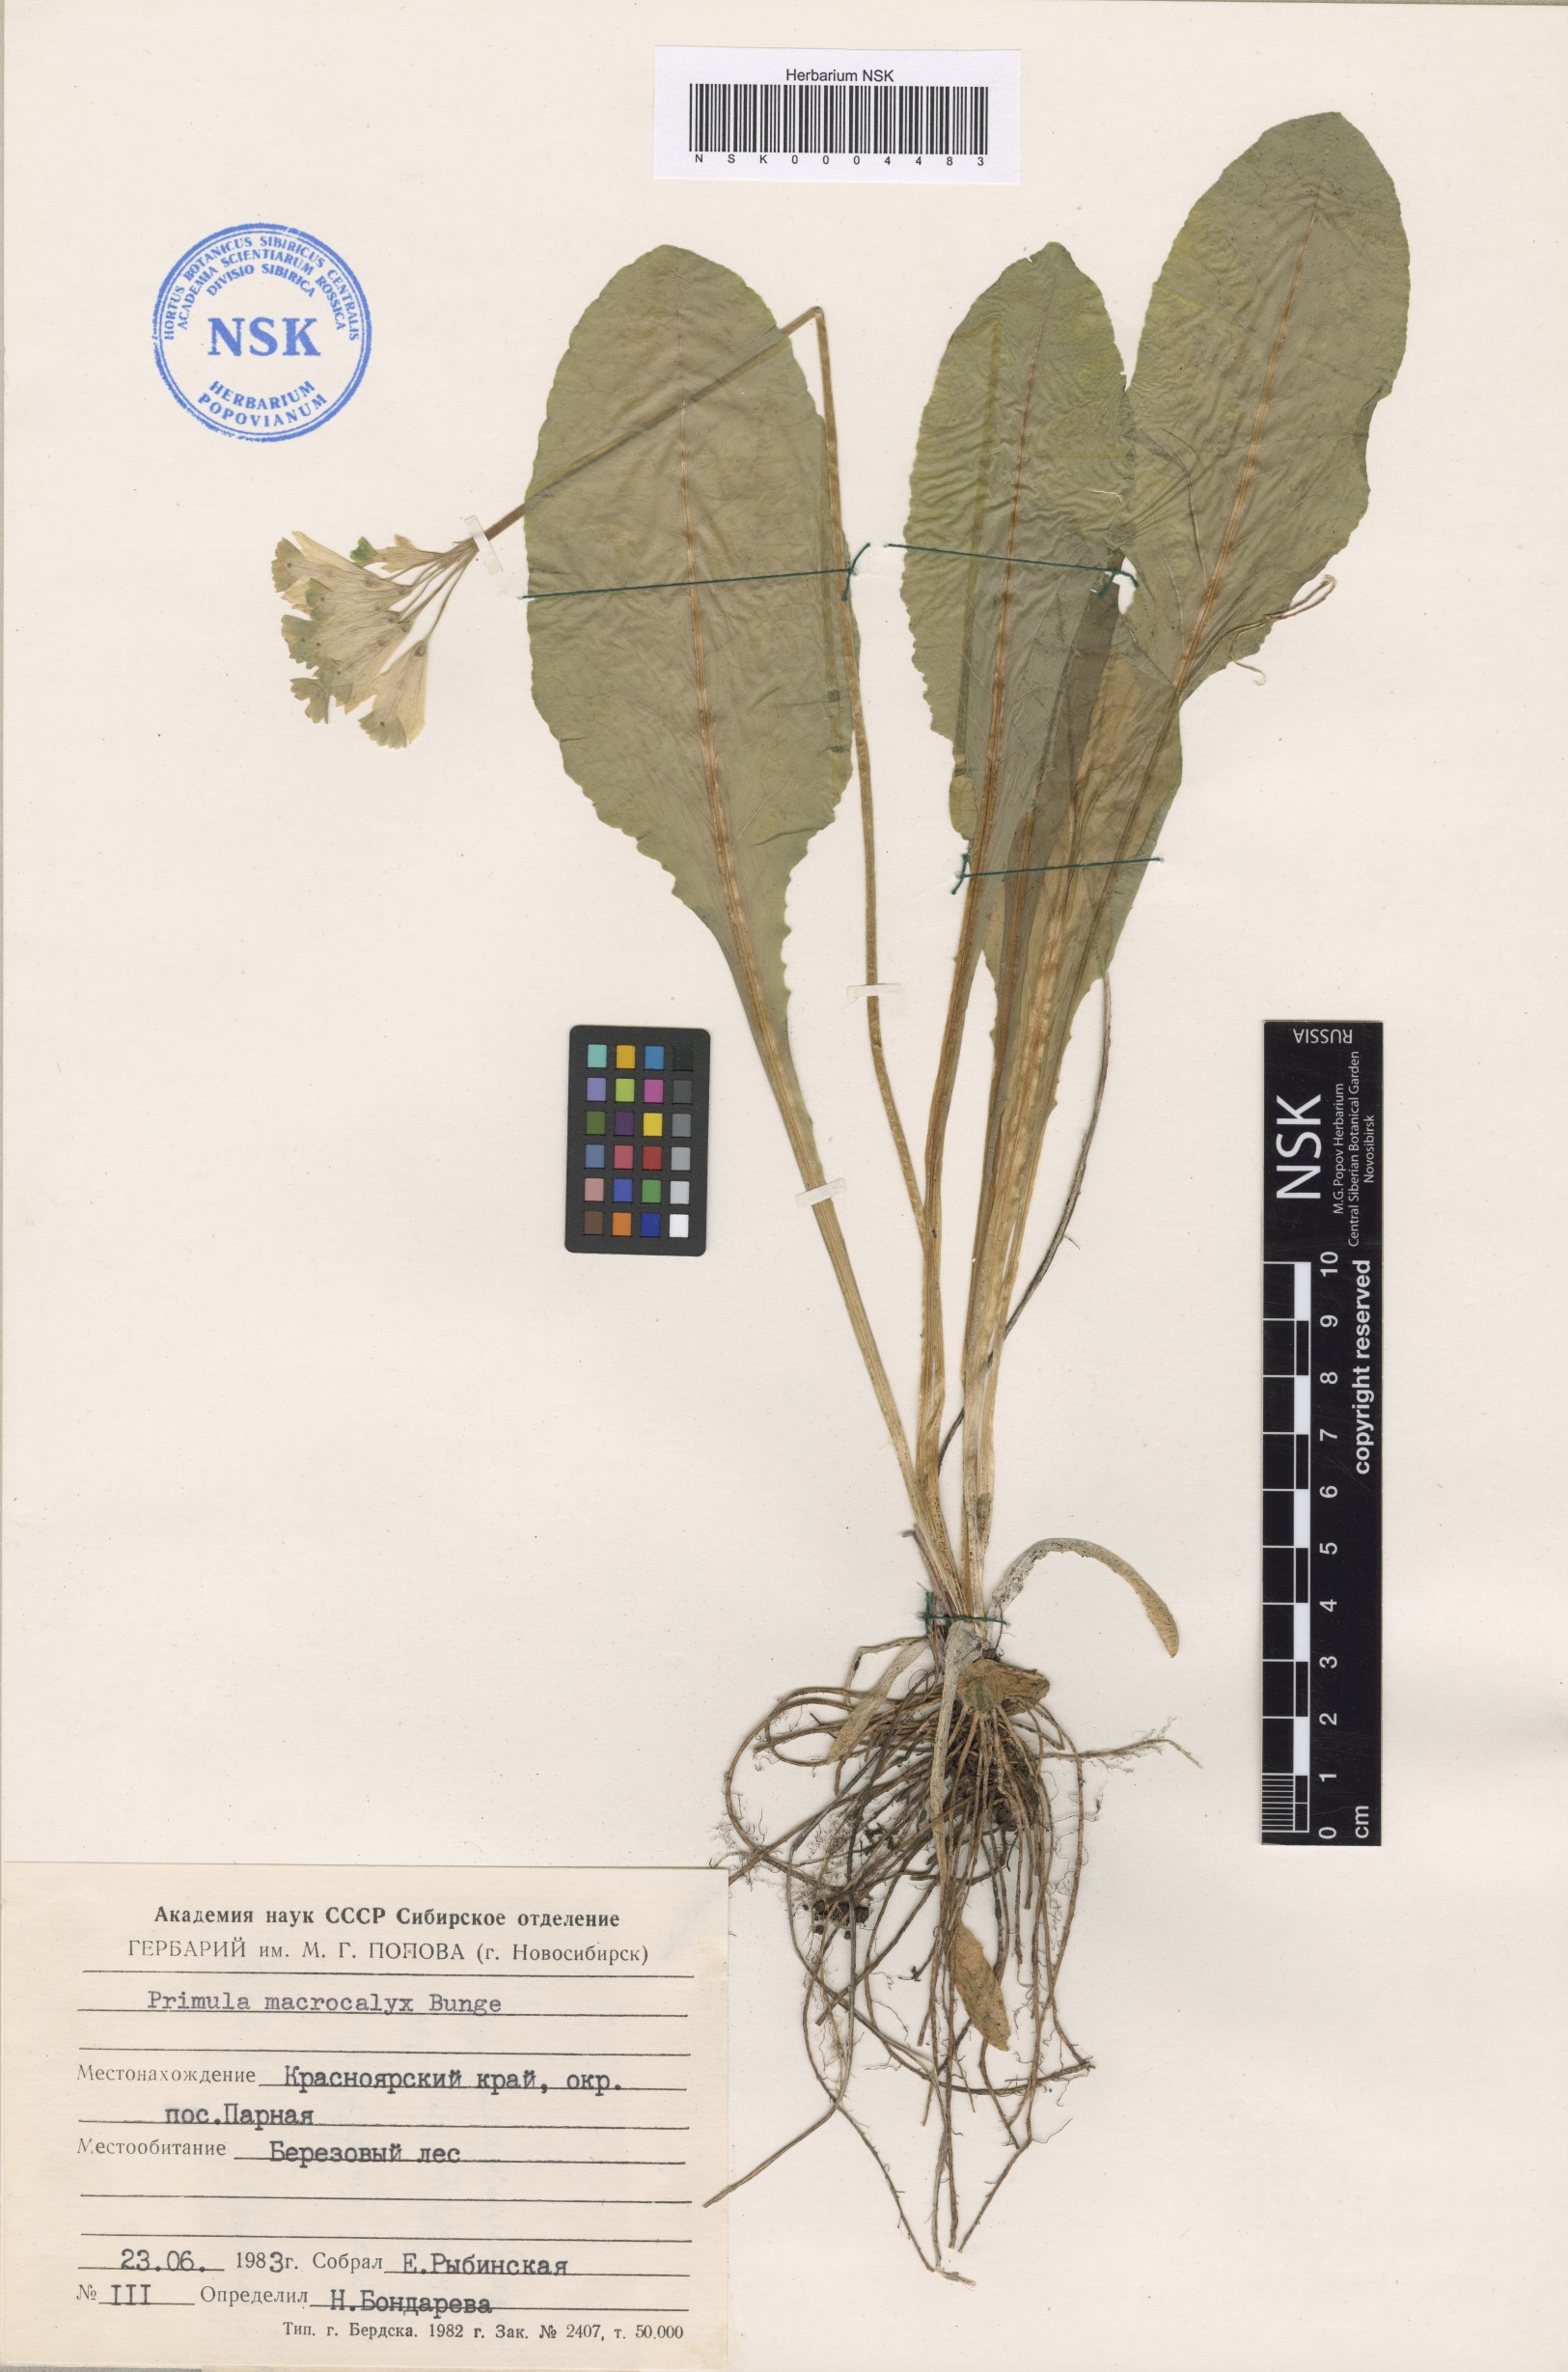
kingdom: Plantae
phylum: Tracheophyta
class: Magnoliopsida
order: Ericales
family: Primulaceae
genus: Primula
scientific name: Primula veris
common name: Cowslip
